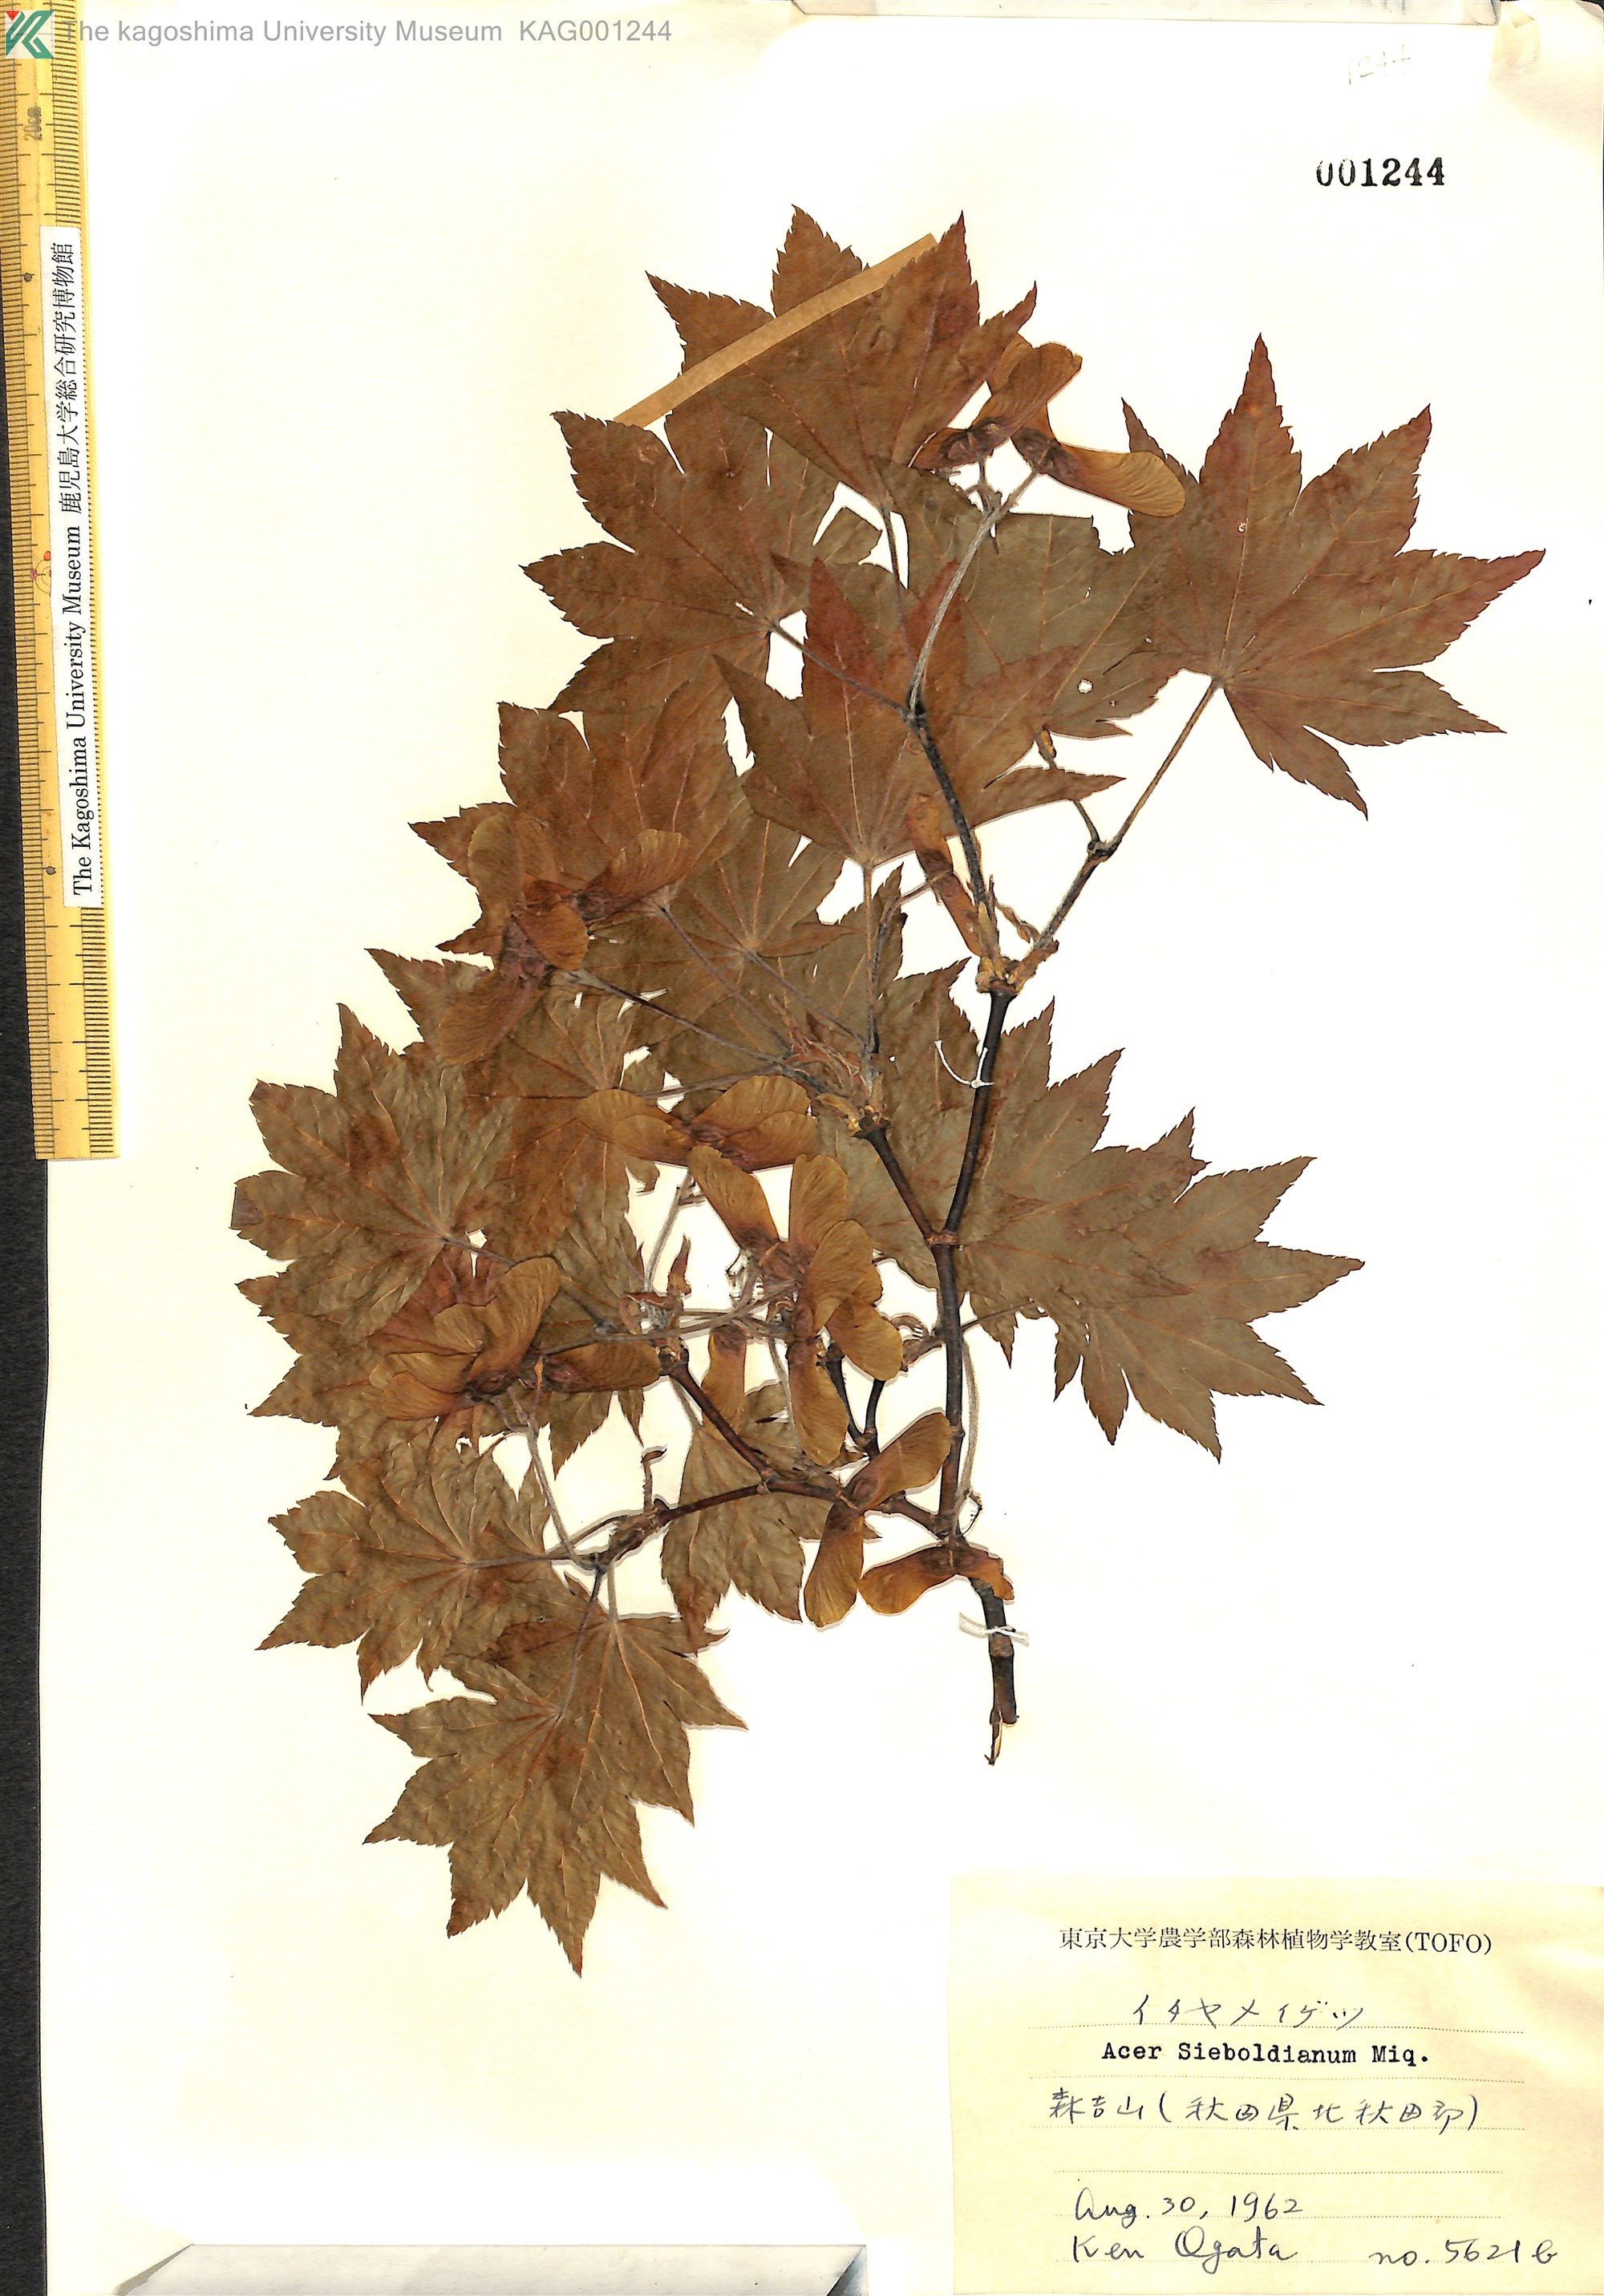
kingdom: Plantae
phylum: Tracheophyta
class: Magnoliopsida
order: Sapindales
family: Sapindaceae
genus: Acer
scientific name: Acer sieboldianum
